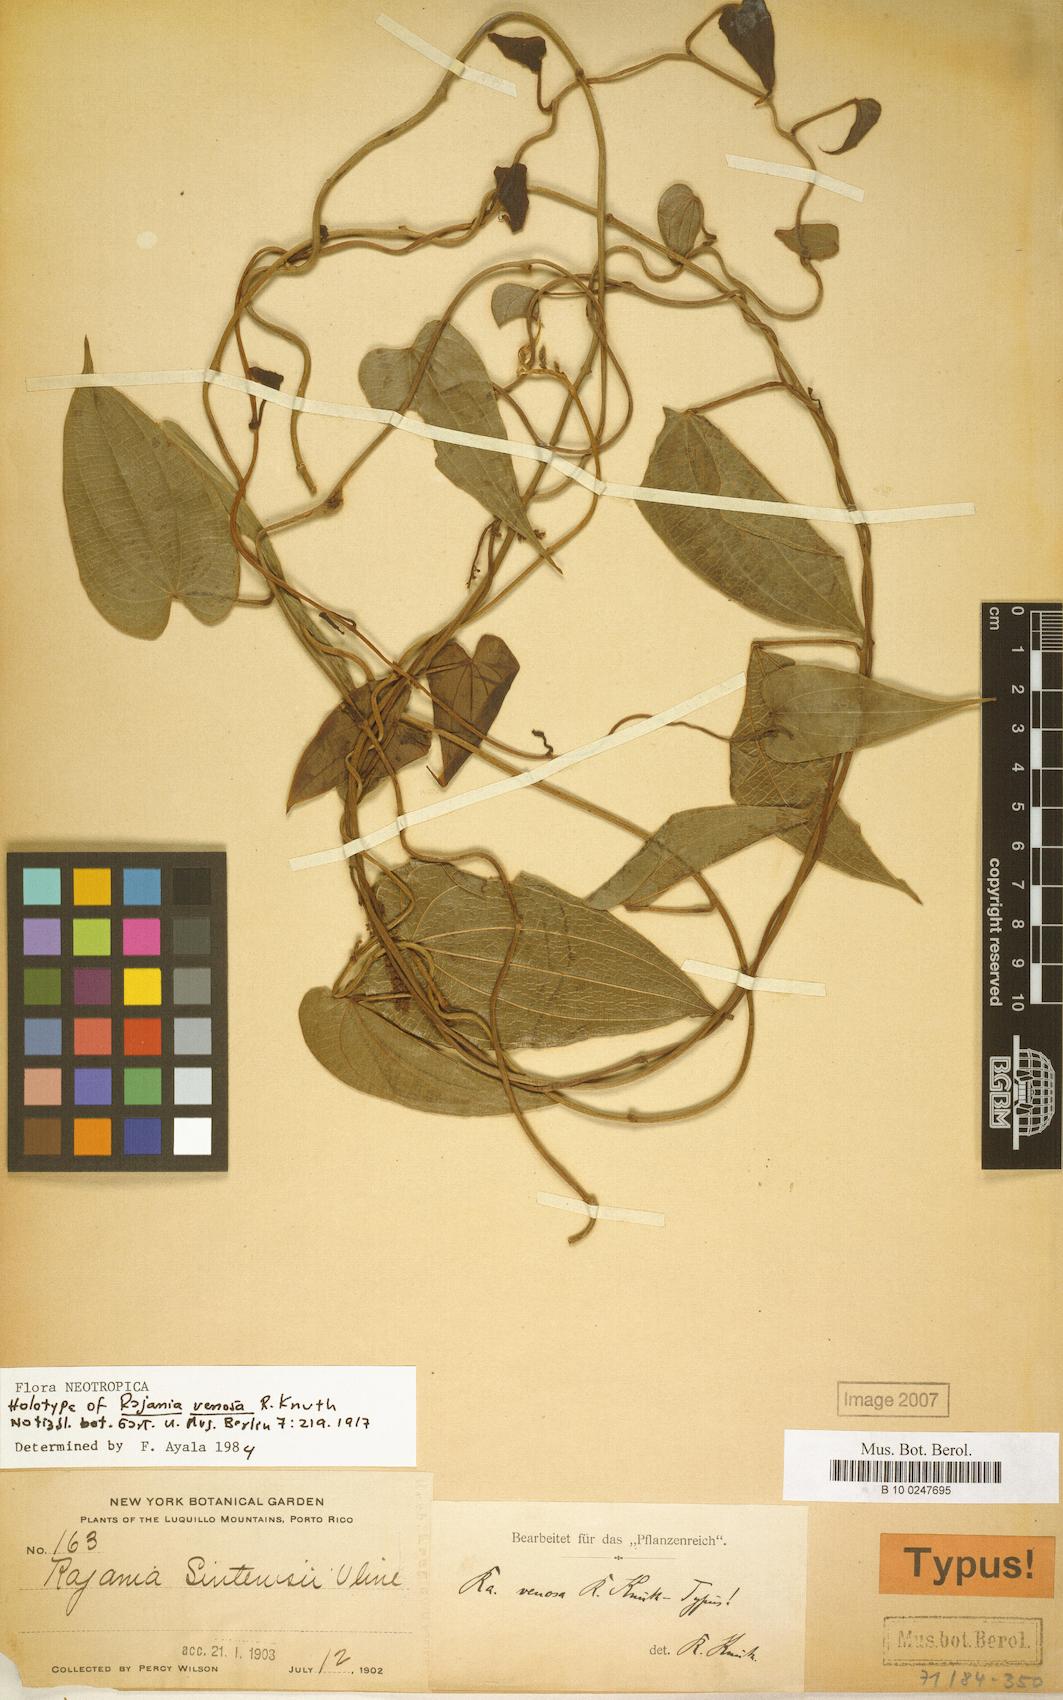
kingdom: Plantae
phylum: Tracheophyta
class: Liliopsida
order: Dioscoreales
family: Dioscoreaceae
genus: Dioscorea
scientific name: Dioscorea cordata
